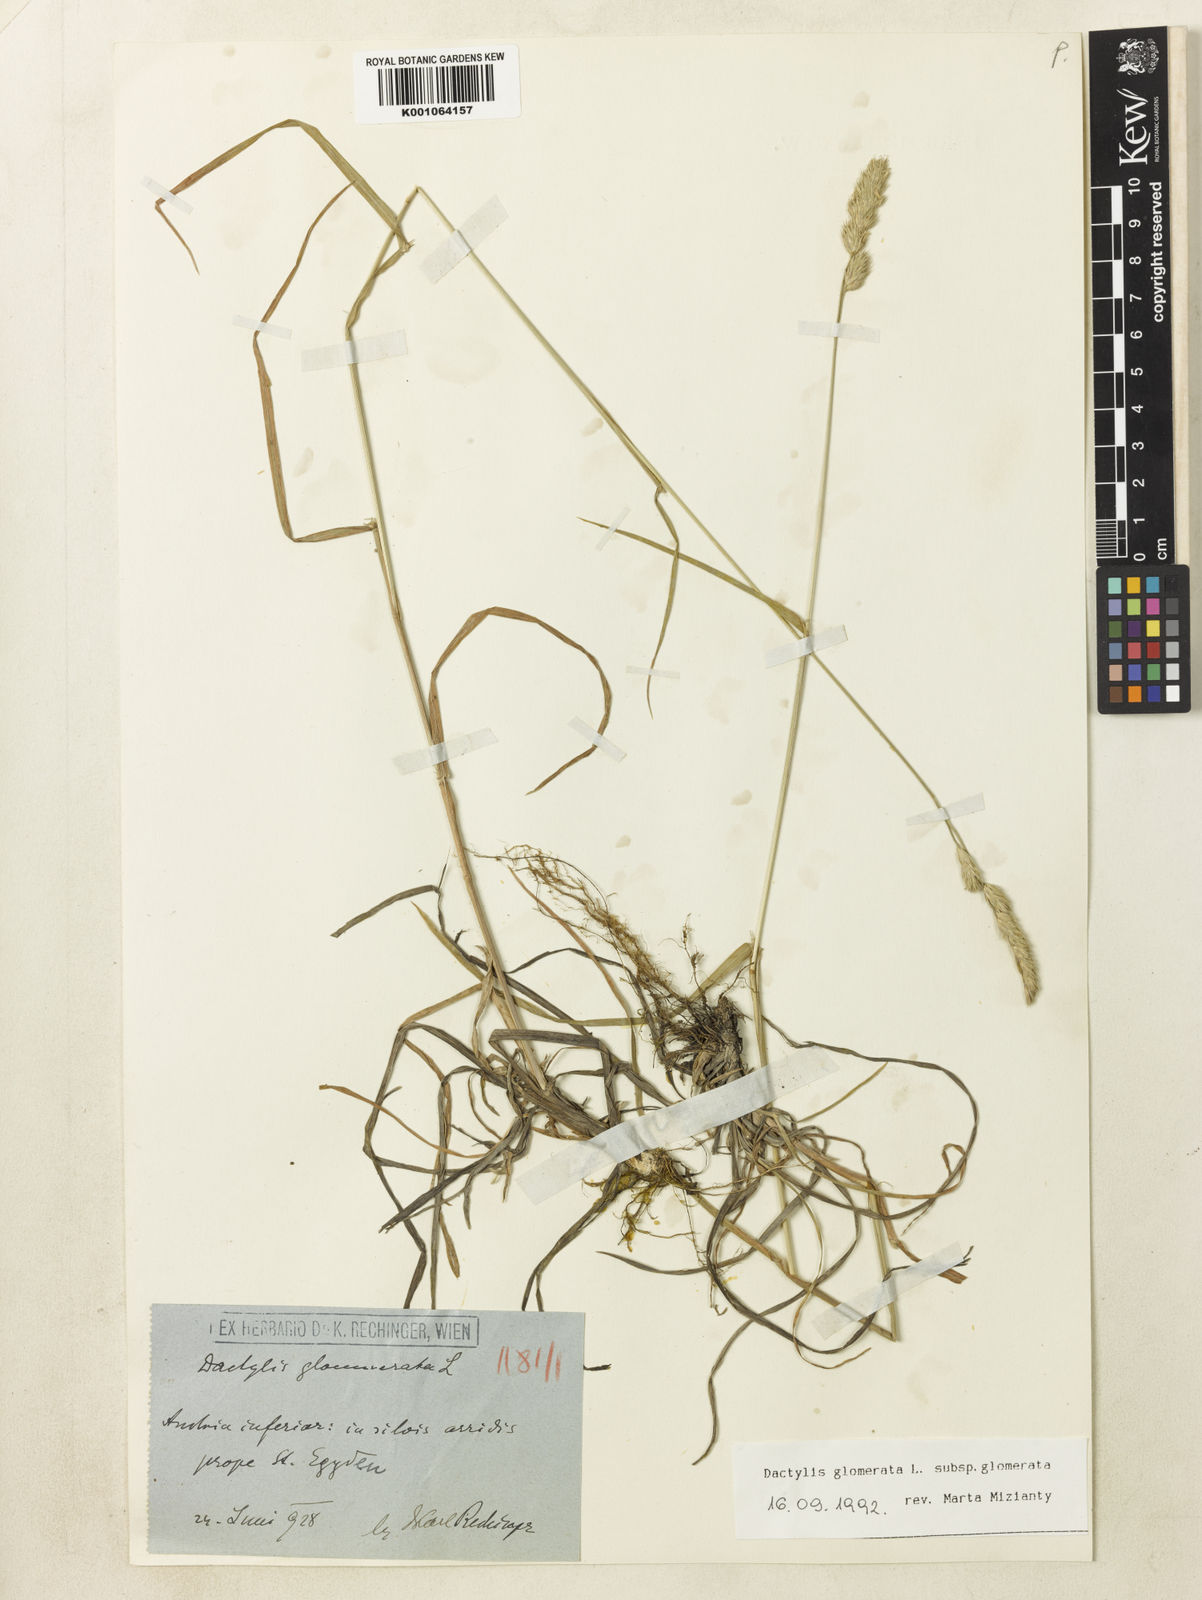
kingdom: Plantae
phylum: Tracheophyta
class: Liliopsida
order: Poales
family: Poaceae
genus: Dactylis
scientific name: Dactylis glomerata
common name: Orchardgrass
